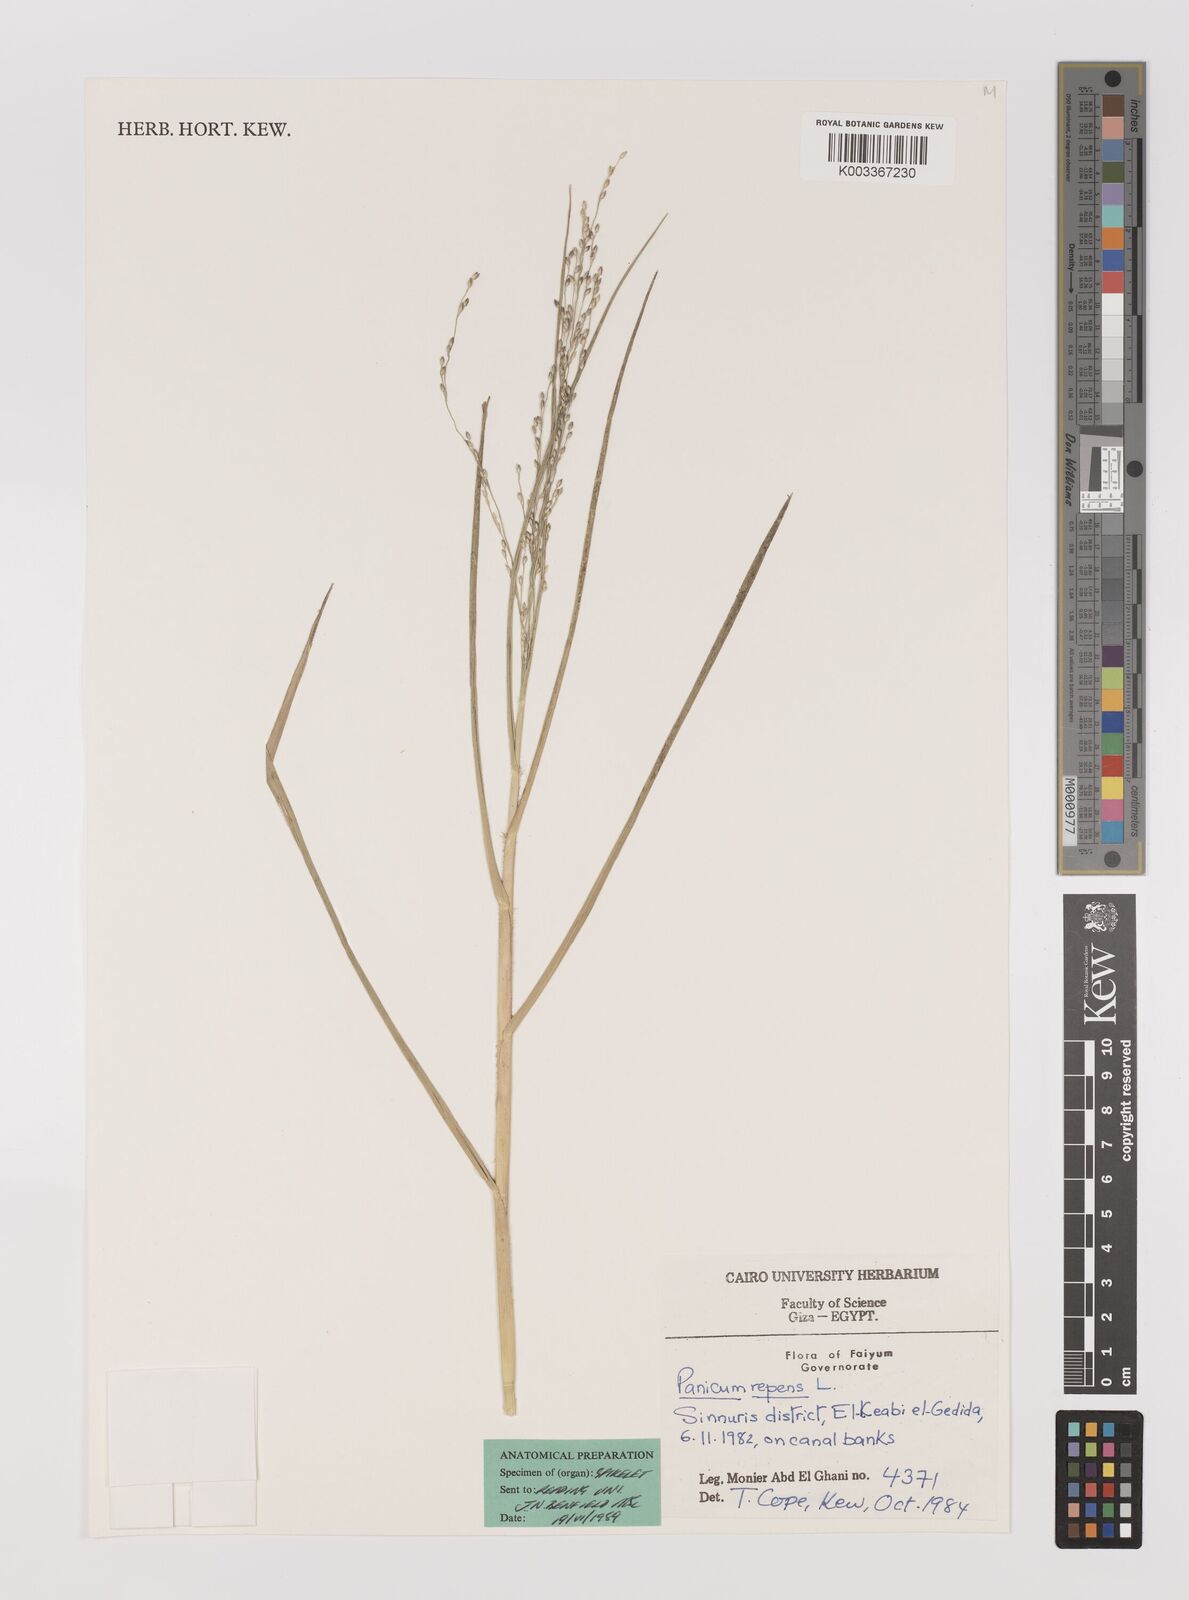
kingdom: Plantae
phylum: Tracheophyta
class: Liliopsida
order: Poales
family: Poaceae
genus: Panicum
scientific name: Panicum repens
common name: Torpedo grass
